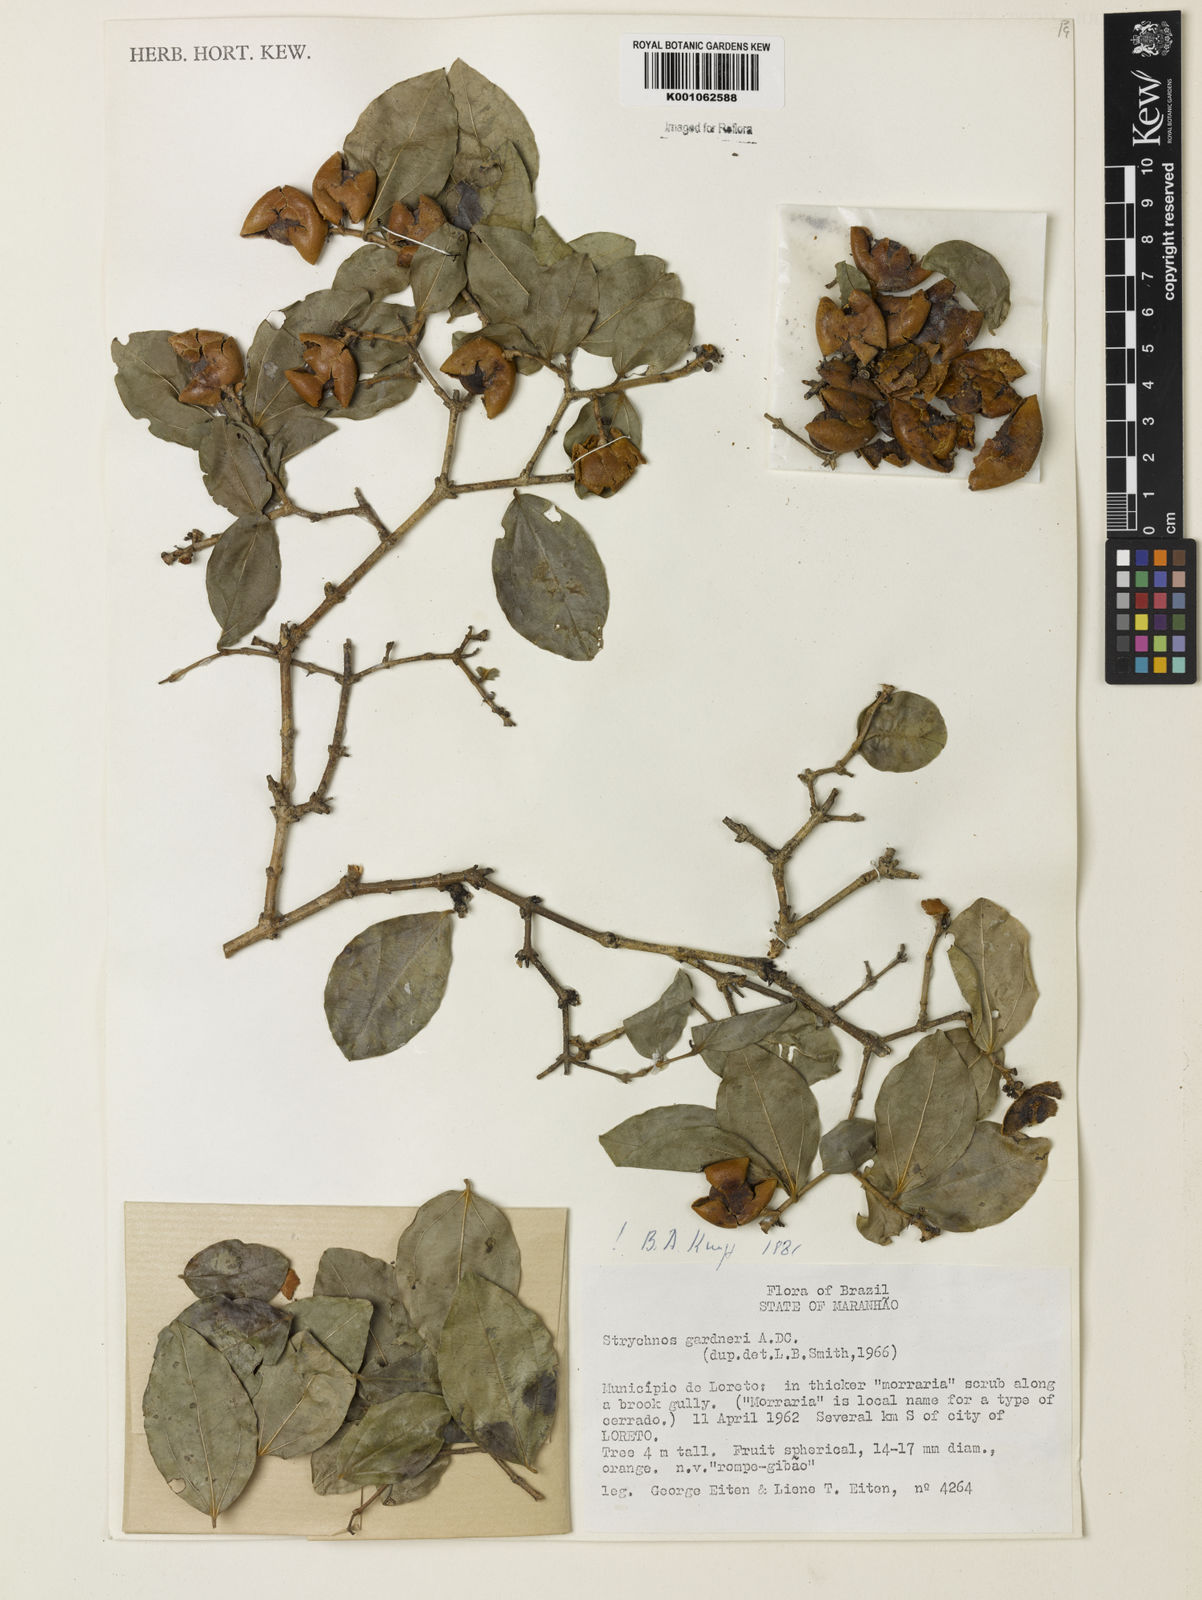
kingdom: Plantae
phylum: Tracheophyta
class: Magnoliopsida
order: Gentianales
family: Loganiaceae
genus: Strychnos
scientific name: Strychnos gardneri
